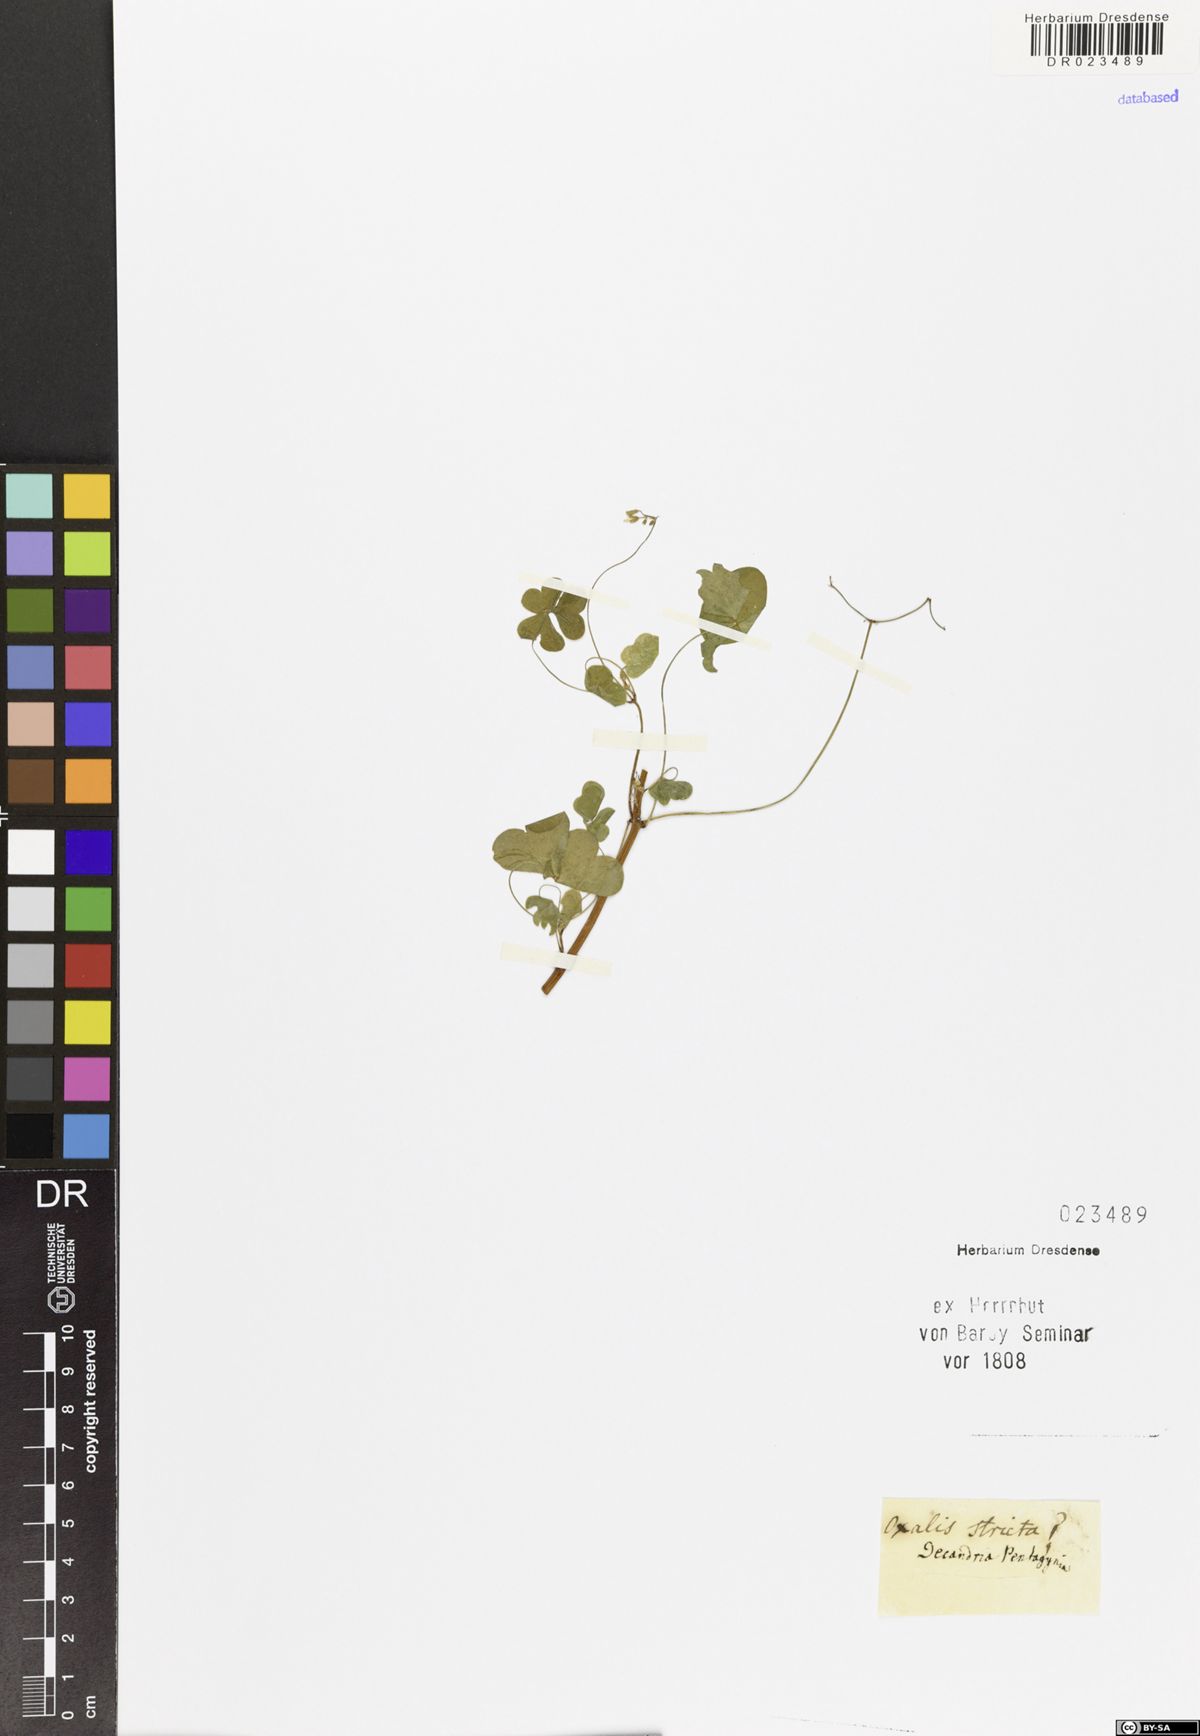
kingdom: Plantae
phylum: Tracheophyta
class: Magnoliopsida
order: Oxalidales
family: Oxalidaceae
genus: Oxalis
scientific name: Oxalis stricta
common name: Upright yellow-sorrel
